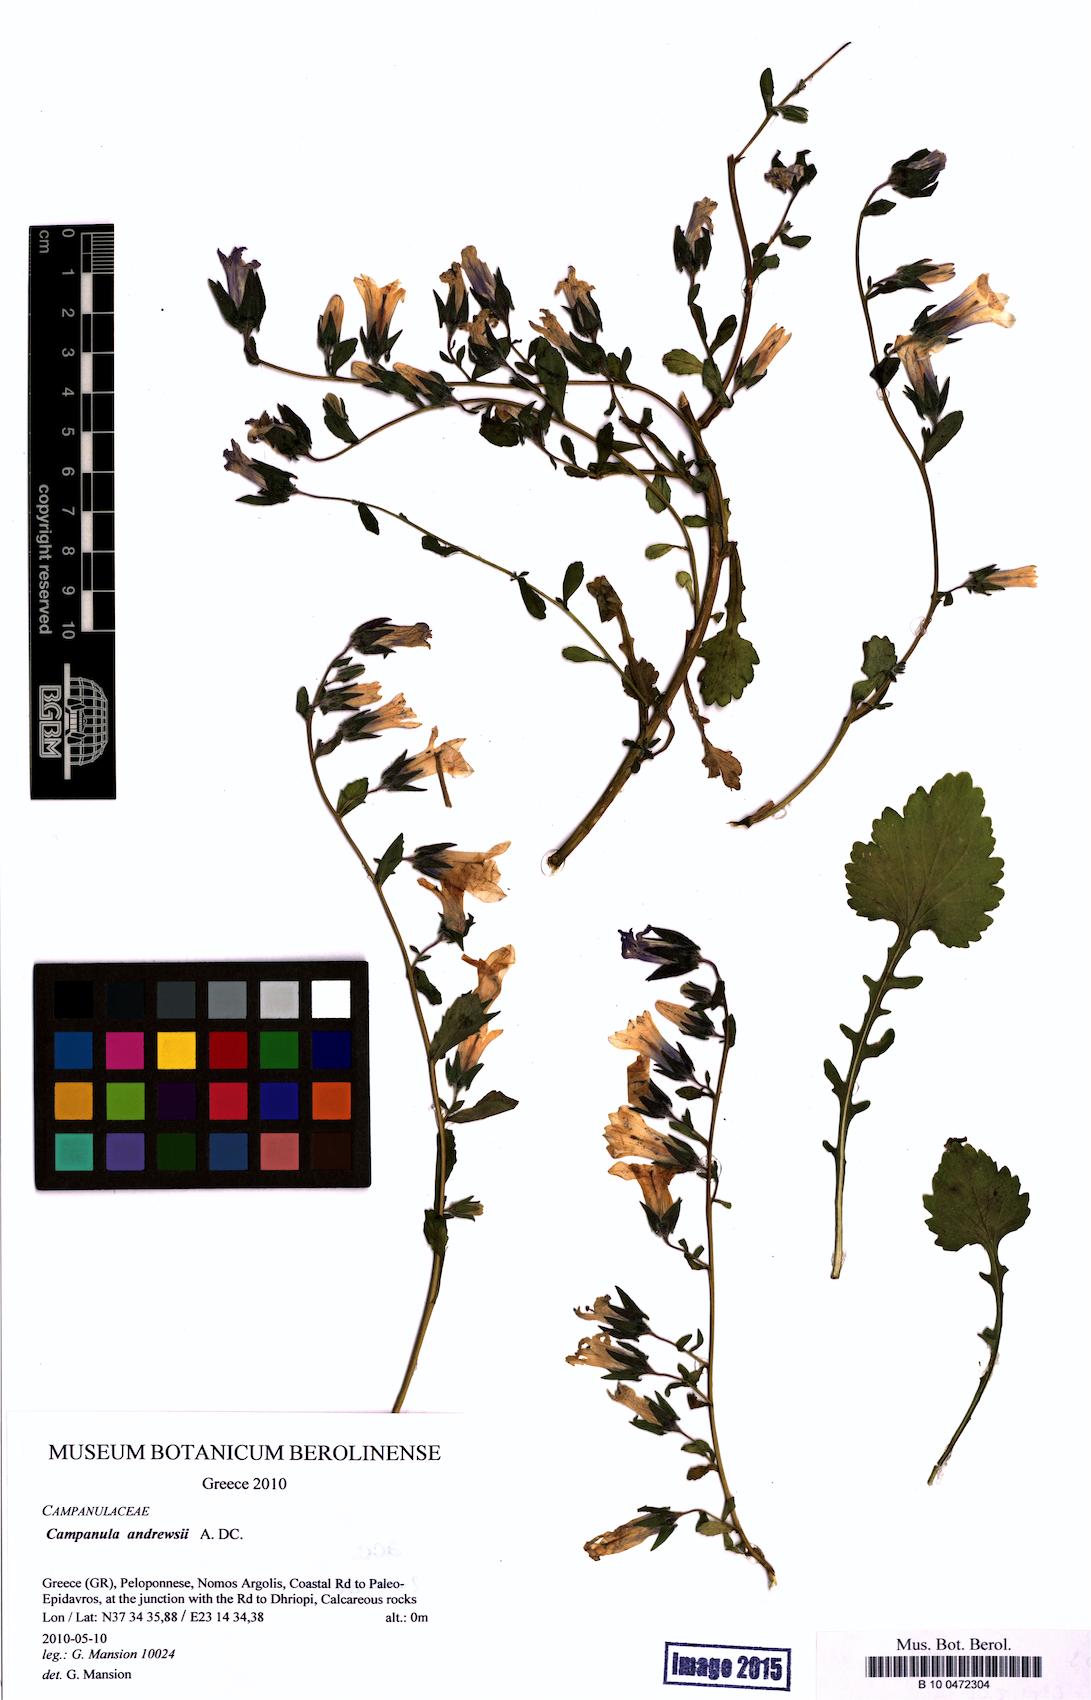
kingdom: Plantae
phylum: Tracheophyta
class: Magnoliopsida
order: Asterales
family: Campanulaceae
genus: Campanula
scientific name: Campanula andrewsii
